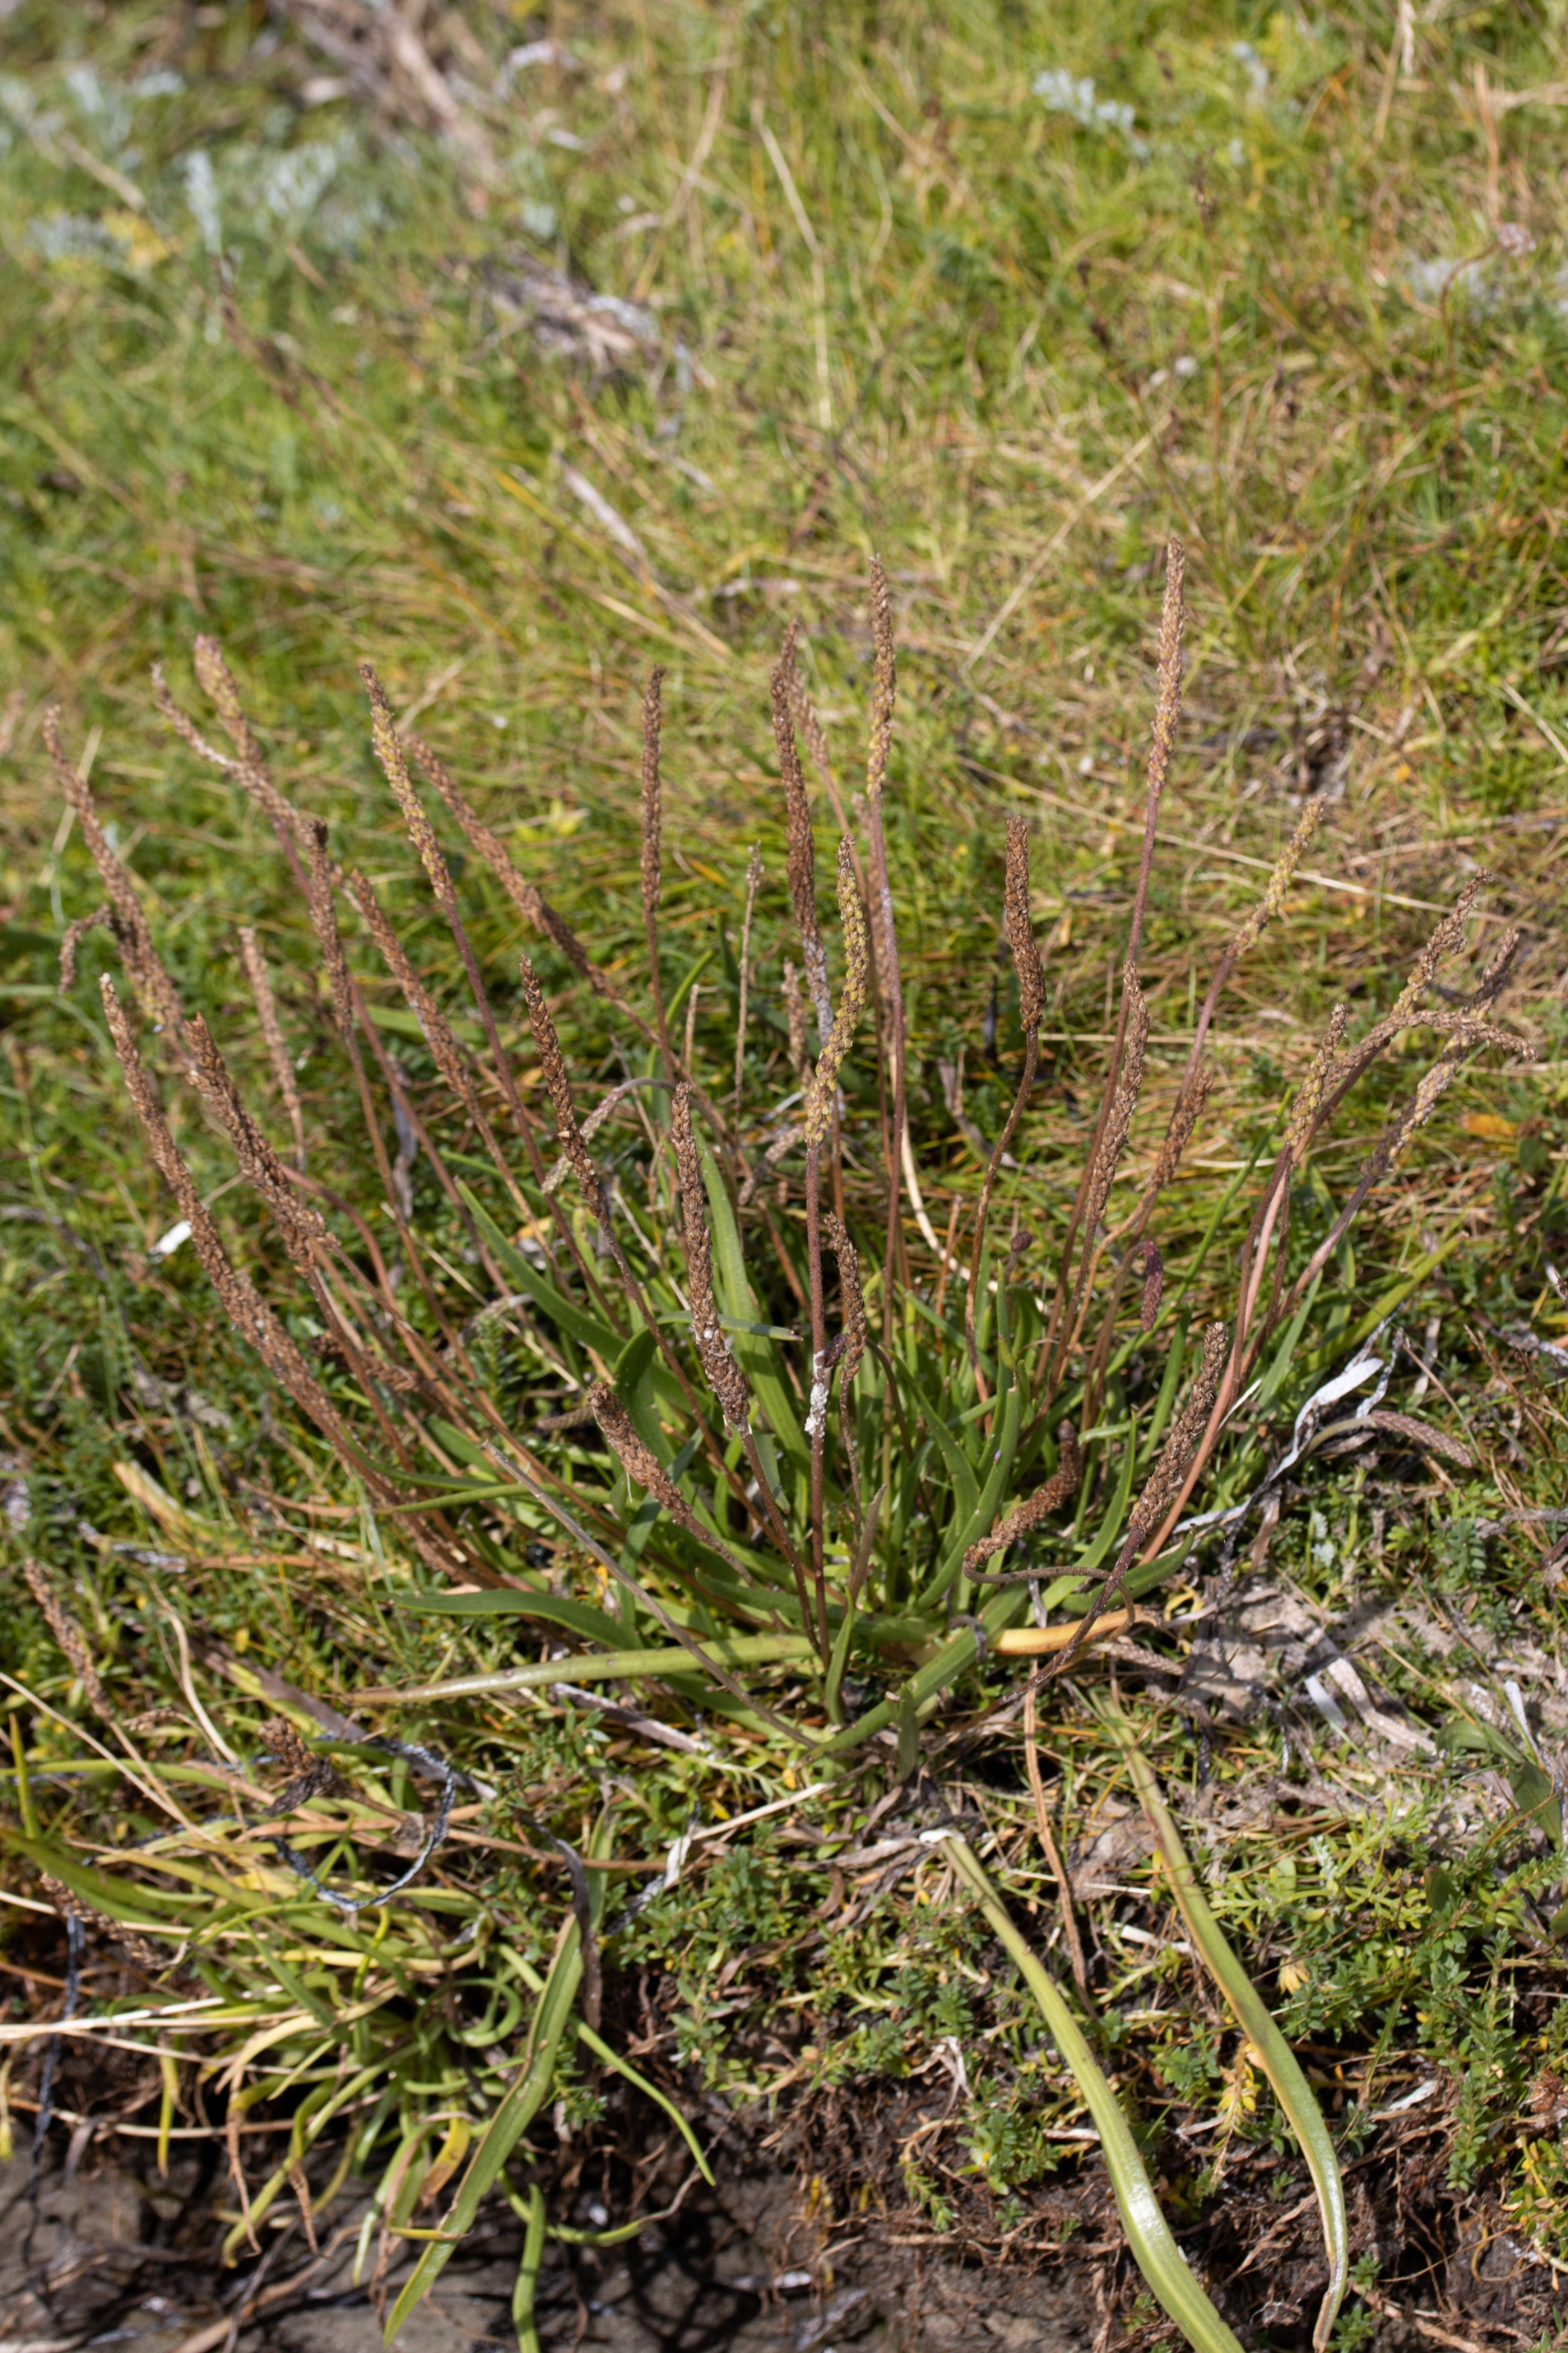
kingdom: Plantae
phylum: Tracheophyta
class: Magnoliopsida
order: Lamiales
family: Plantaginaceae
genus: Plantago
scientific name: Plantago maritima
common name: Strand-vejbred
